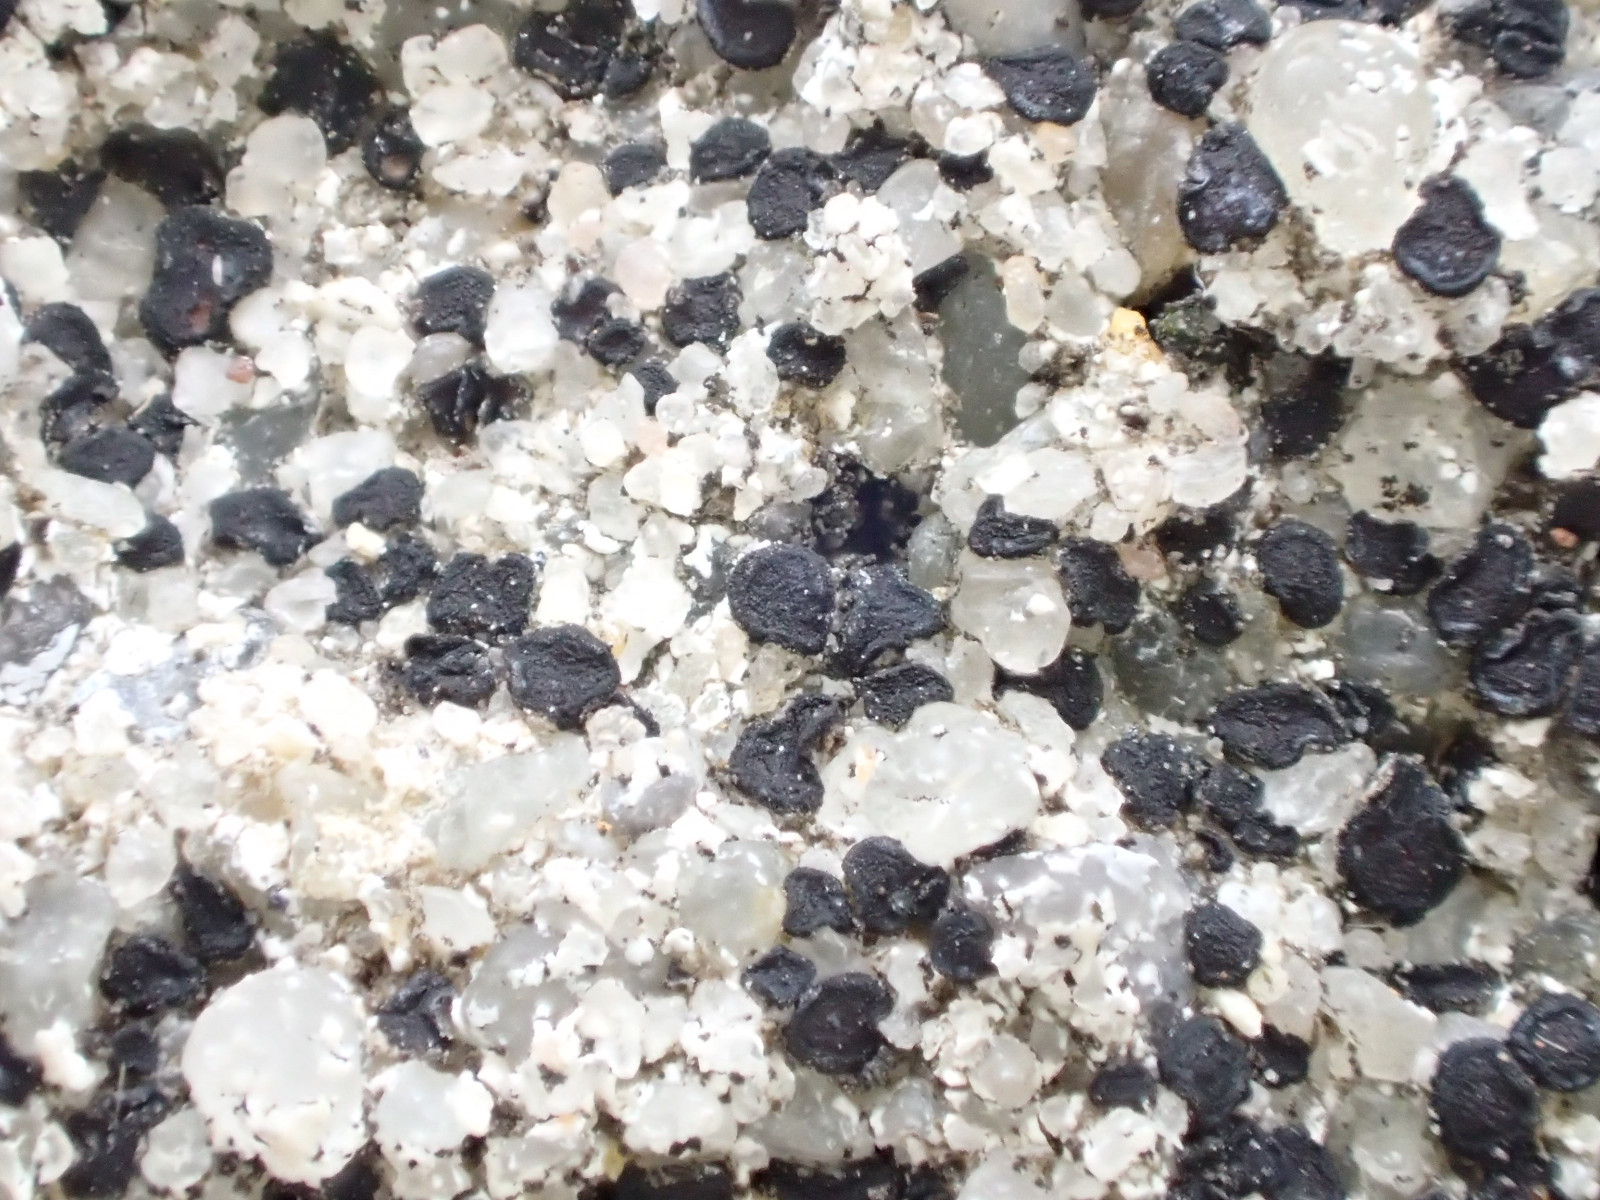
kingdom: Fungi
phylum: Ascomycota
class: Lecanoromycetes
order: Acarosporales
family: Acarosporaceae
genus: Sarcogyne
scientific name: Sarcogyne regularis
